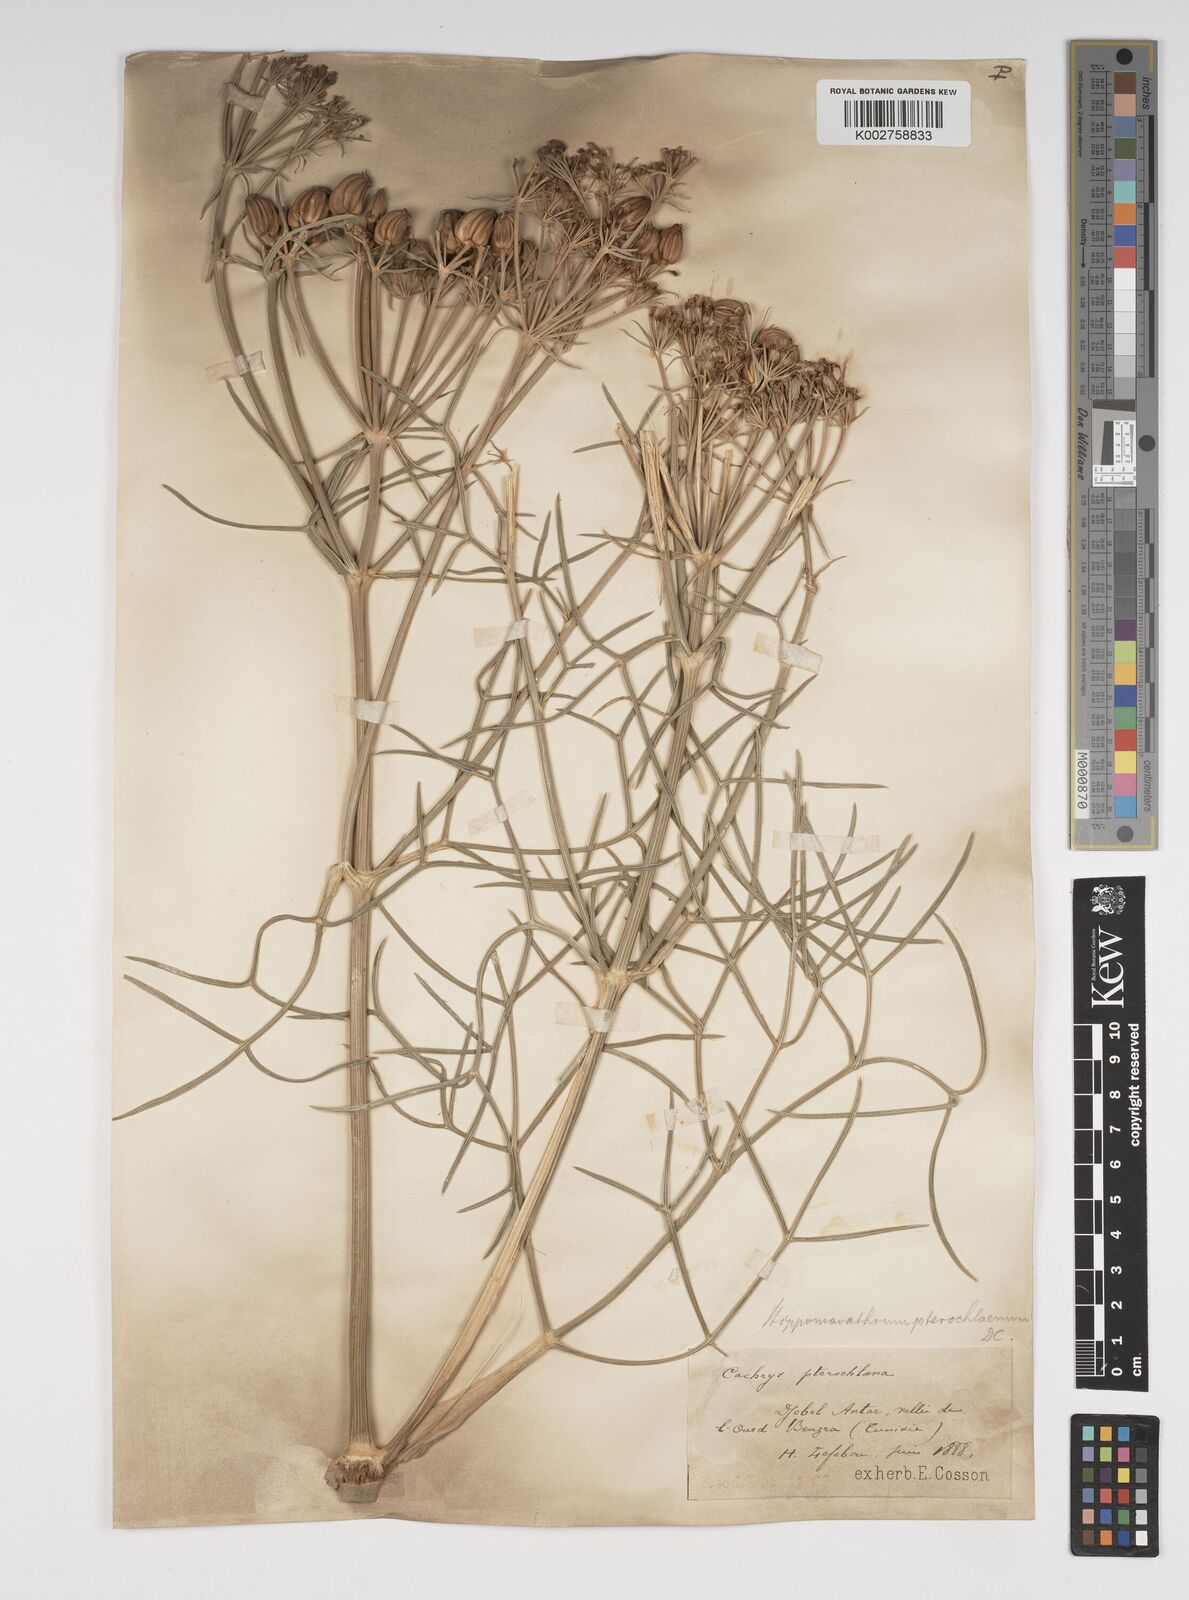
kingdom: Plantae
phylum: Tracheophyta
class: Magnoliopsida
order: Apiales
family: Apiaceae
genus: Cachrys
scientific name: Cachrys sicula
